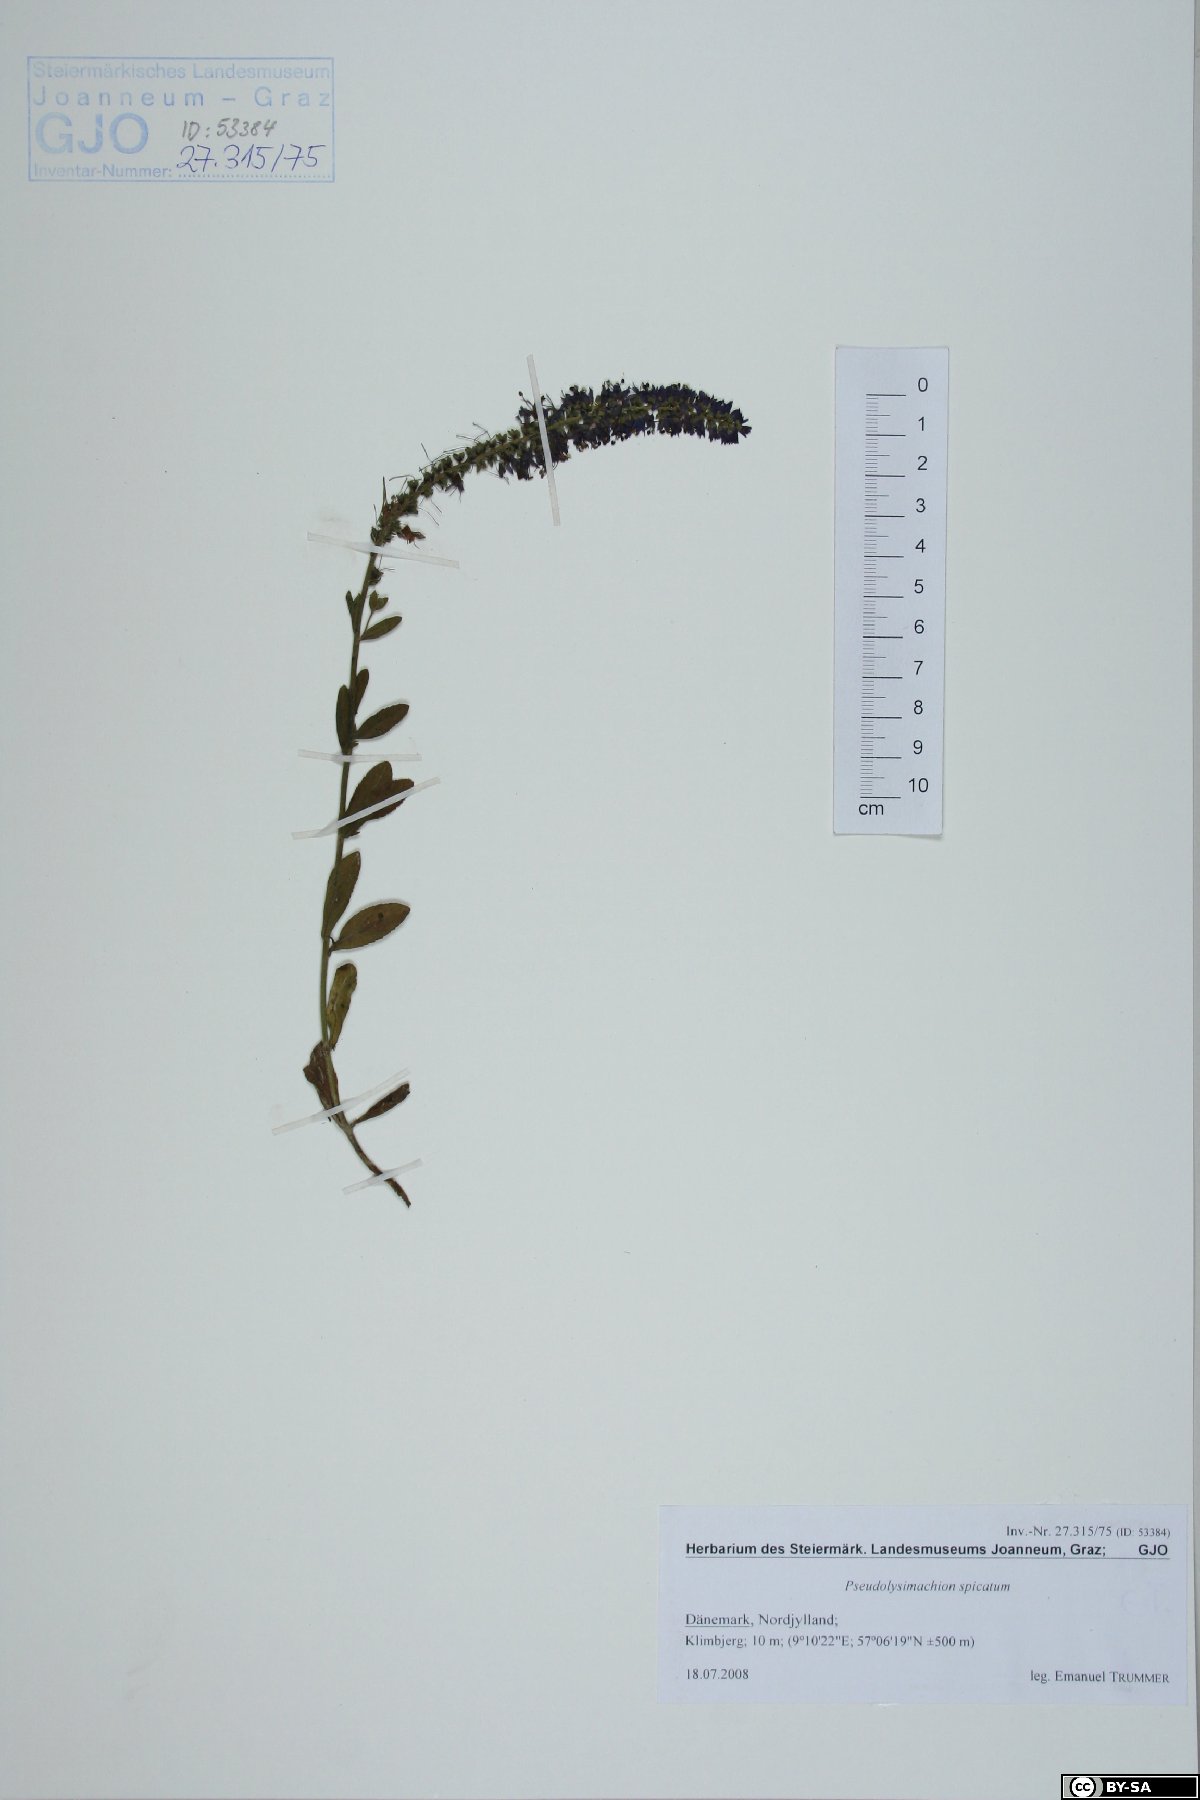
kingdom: Plantae
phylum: Tracheophyta
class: Magnoliopsida
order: Lamiales
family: Plantaginaceae
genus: Veronica
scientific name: Veronica spicata
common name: Spiked speedwell
